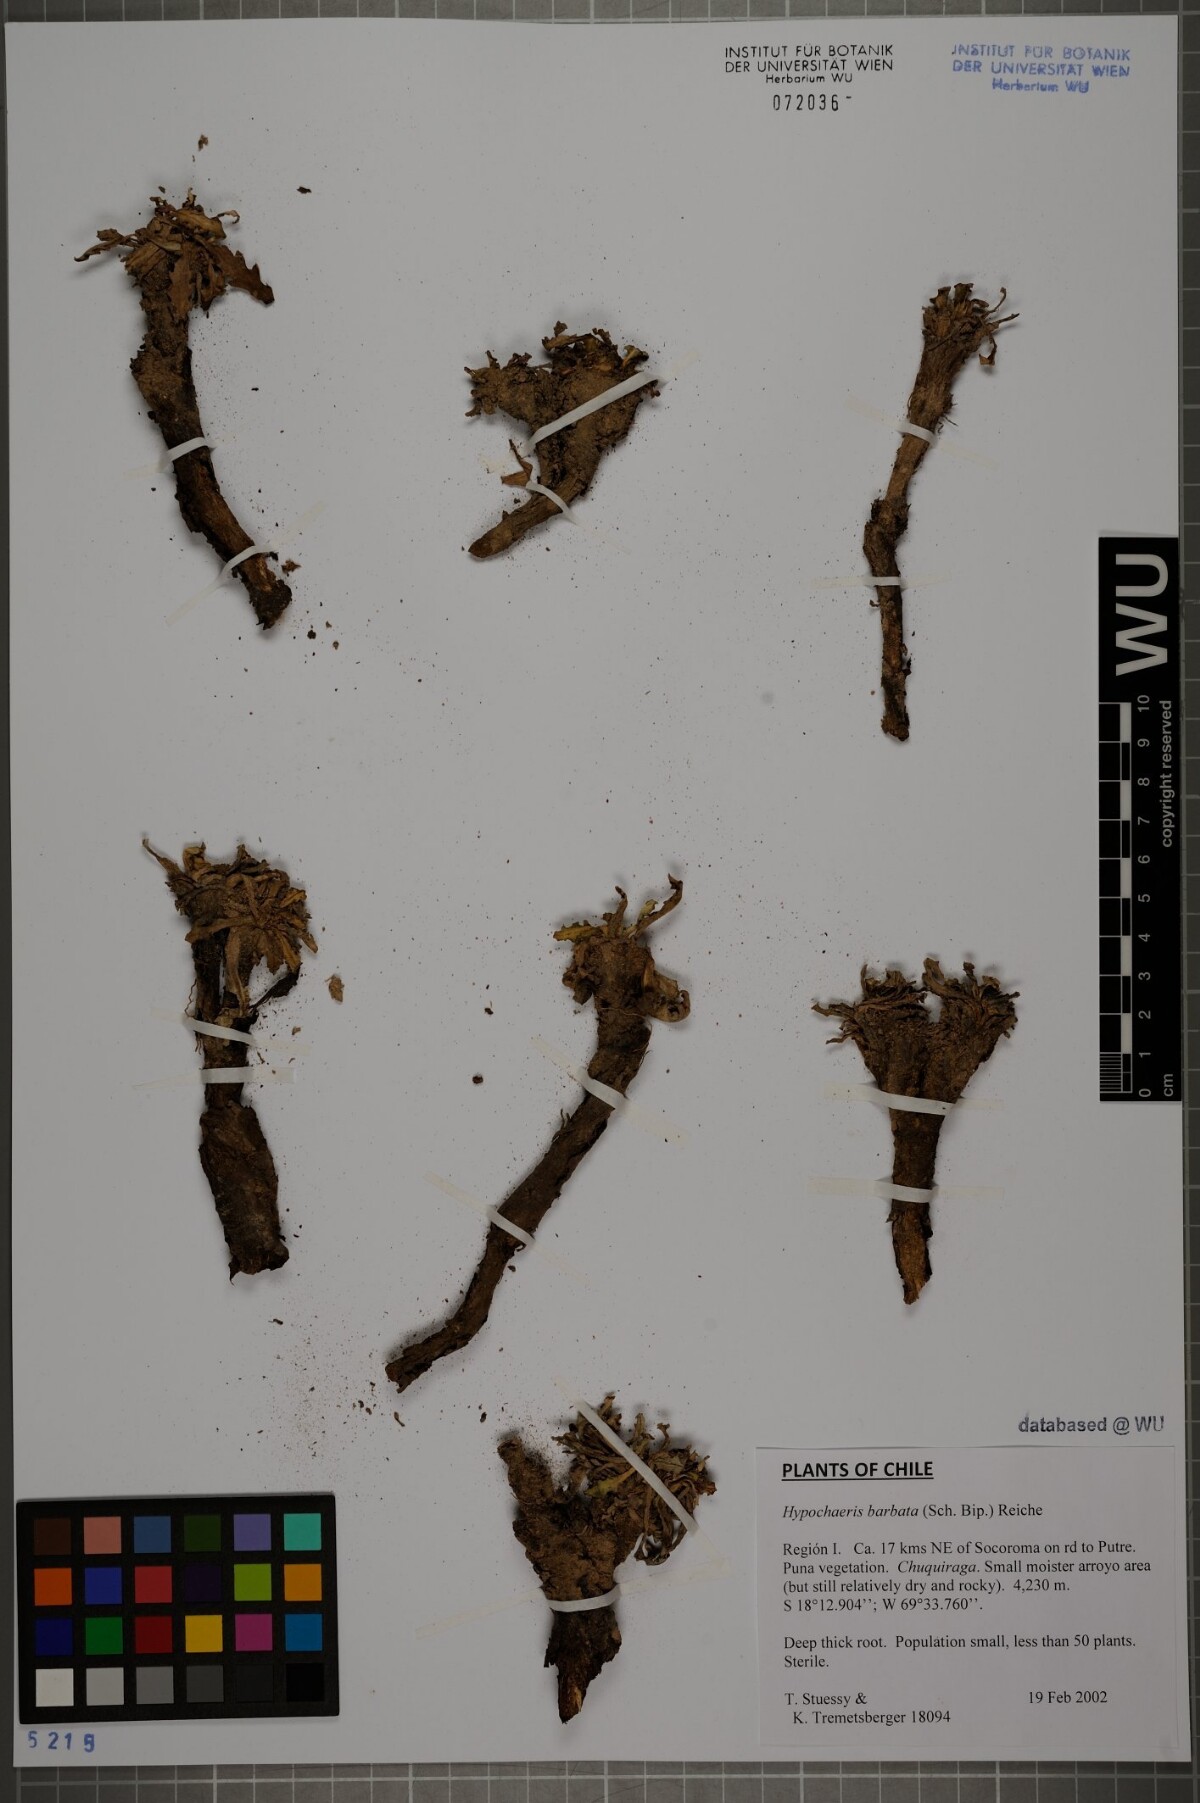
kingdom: Plantae
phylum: Tracheophyta
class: Magnoliopsida
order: Asterales
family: Asteraceae
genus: Hypochaeris
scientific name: Hypochaeris sessiliflora
